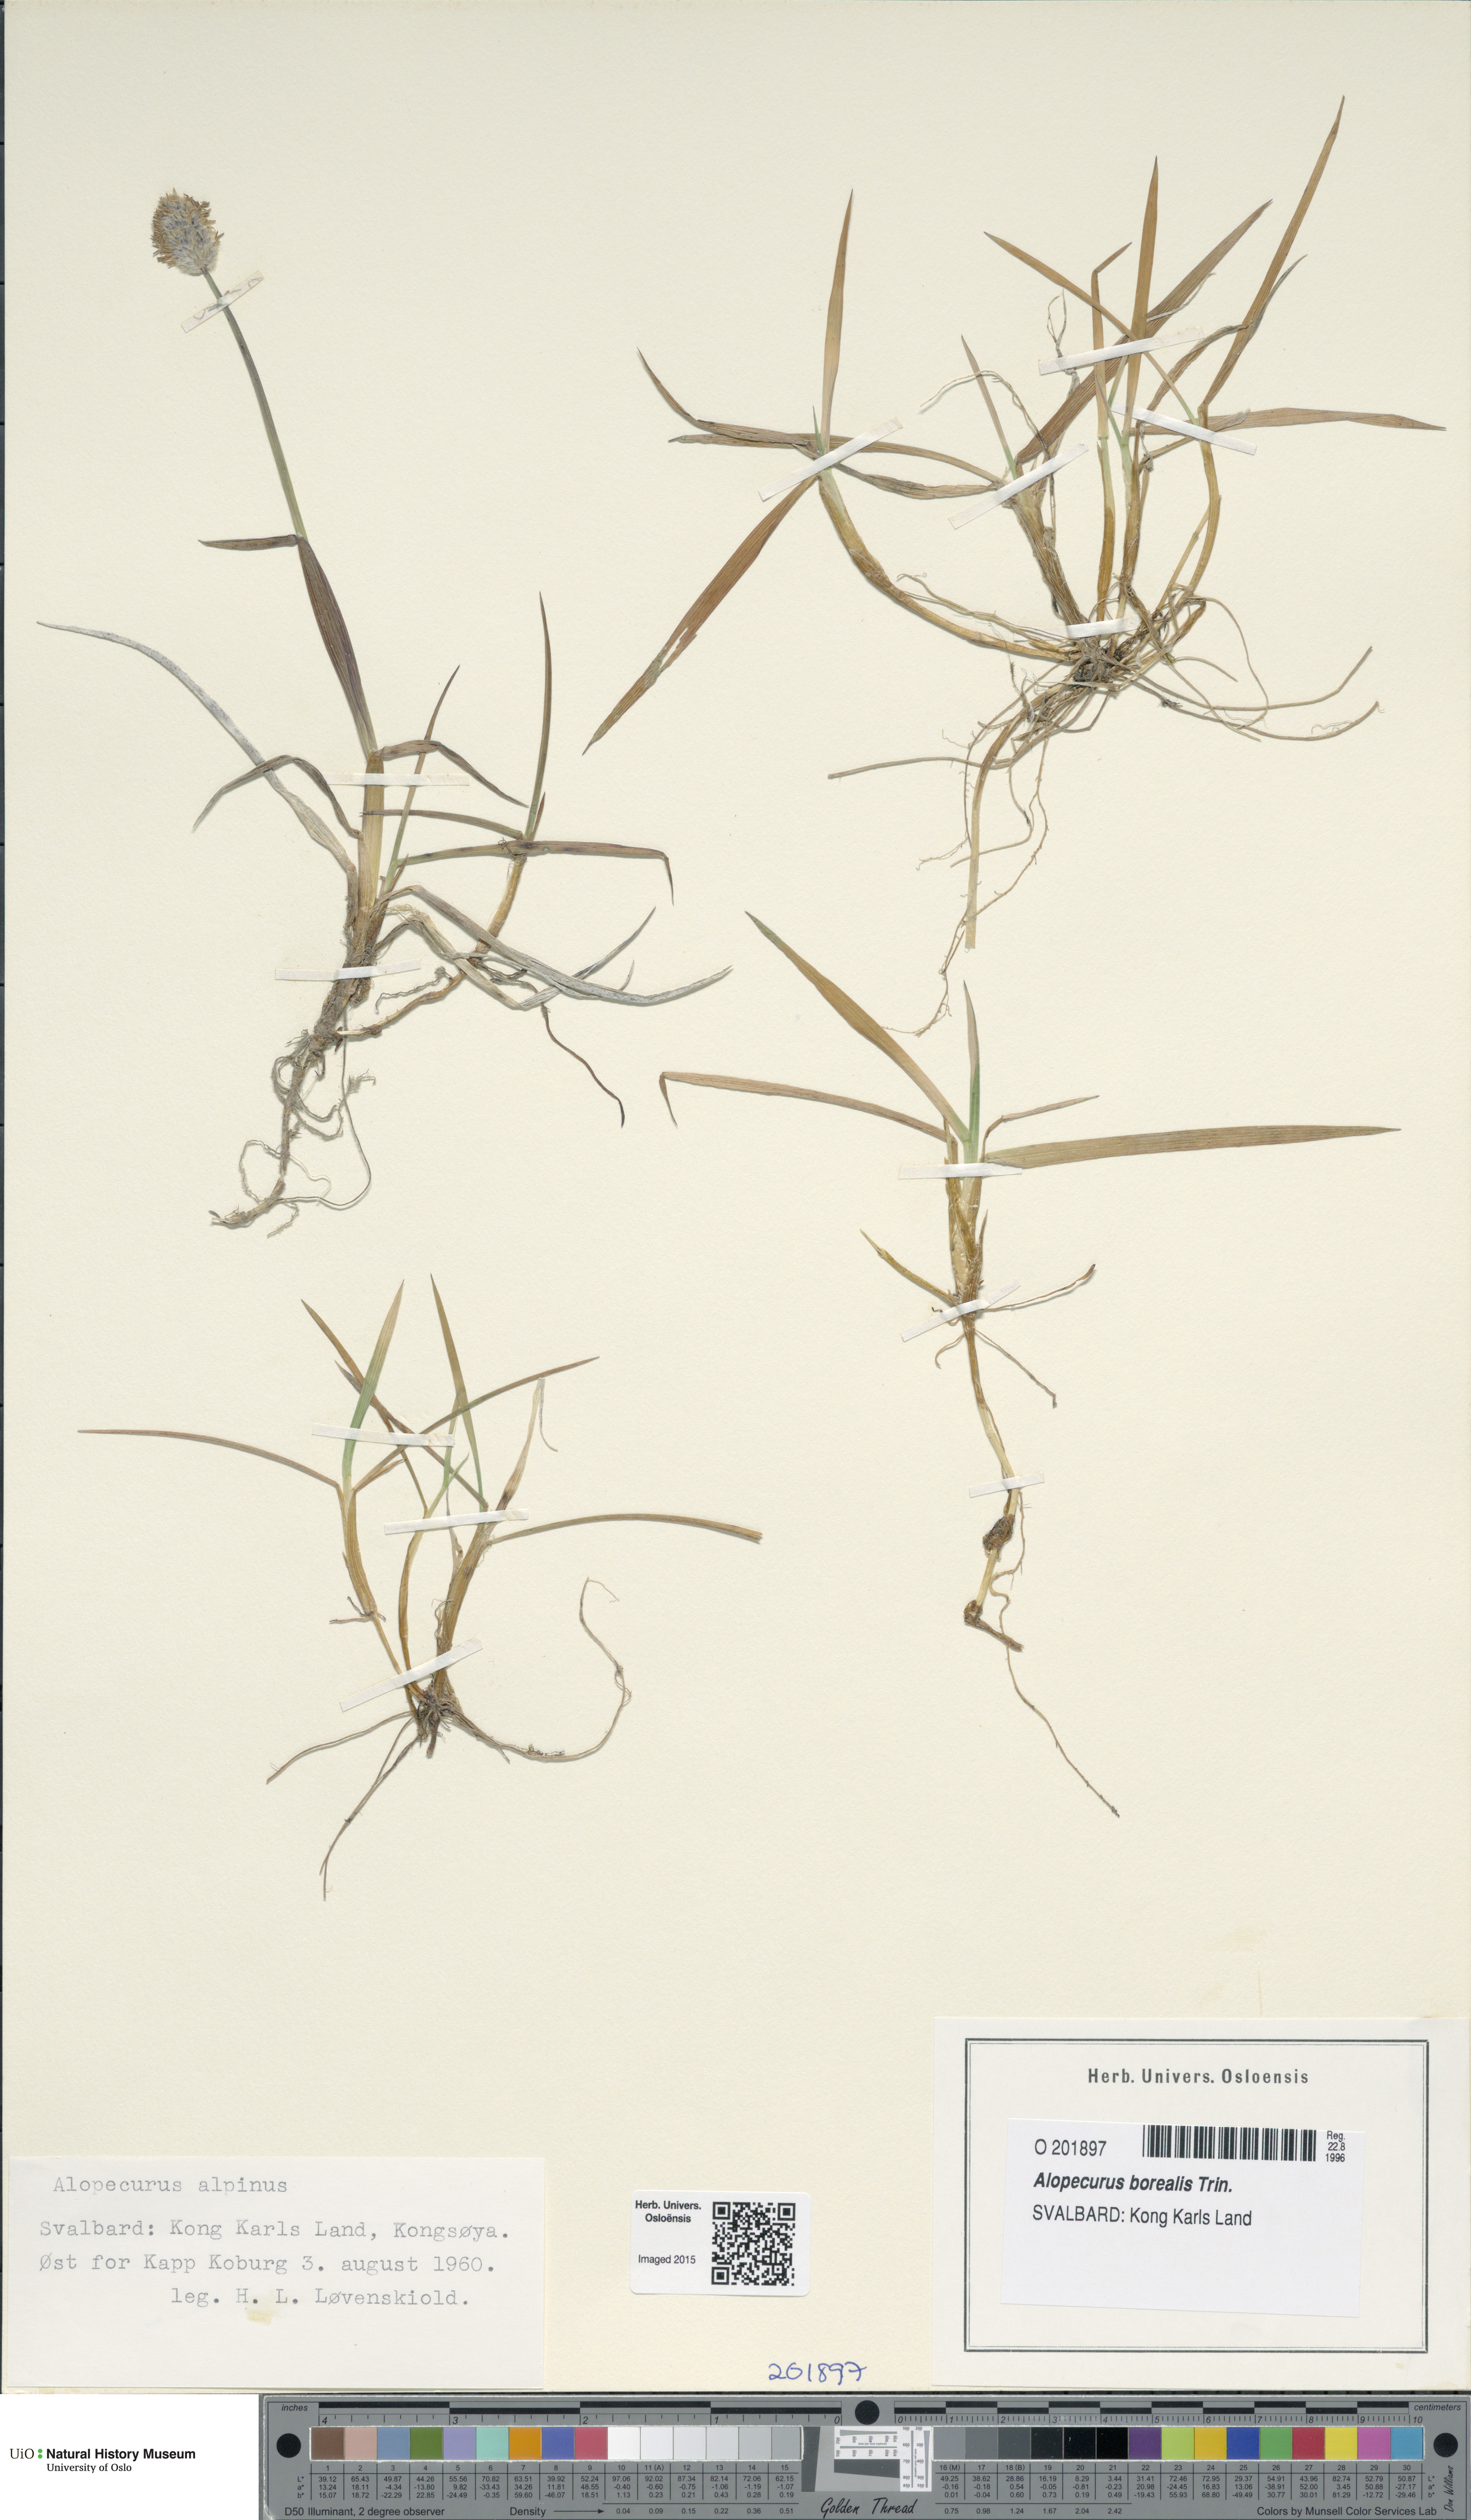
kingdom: Plantae
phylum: Tracheophyta
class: Liliopsida
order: Poales
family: Poaceae
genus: Alopecurus
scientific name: Alopecurus magellanicus
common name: Alpine foxtail
